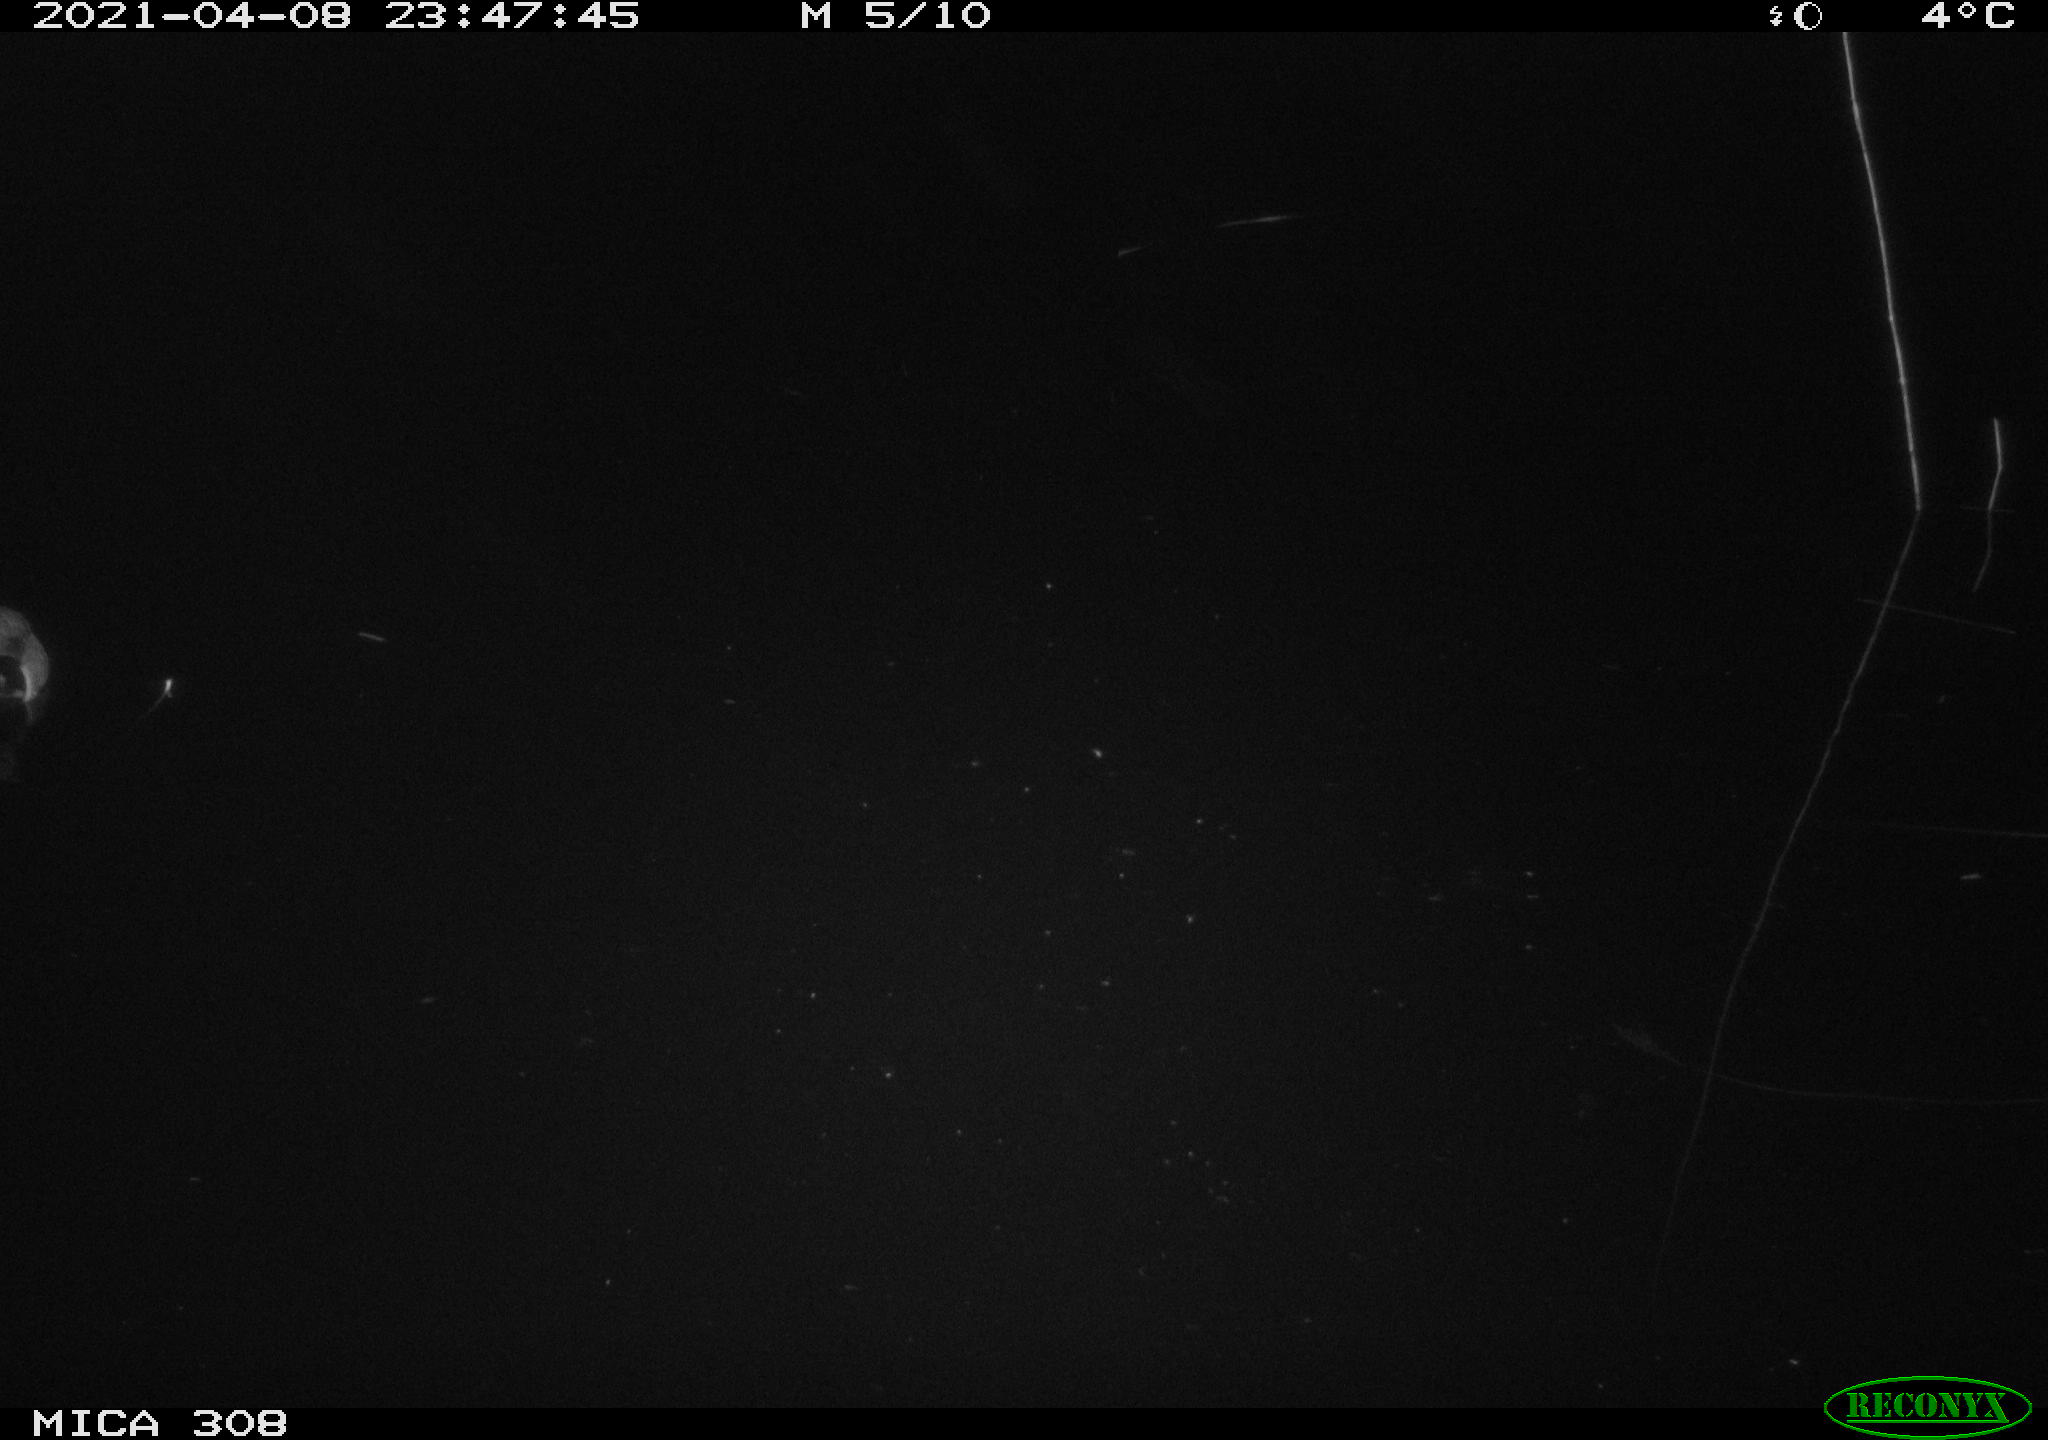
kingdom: Animalia
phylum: Chordata
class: Aves
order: Anseriformes
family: Anatidae
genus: Anas
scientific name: Anas platyrhynchos
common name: Mallard
